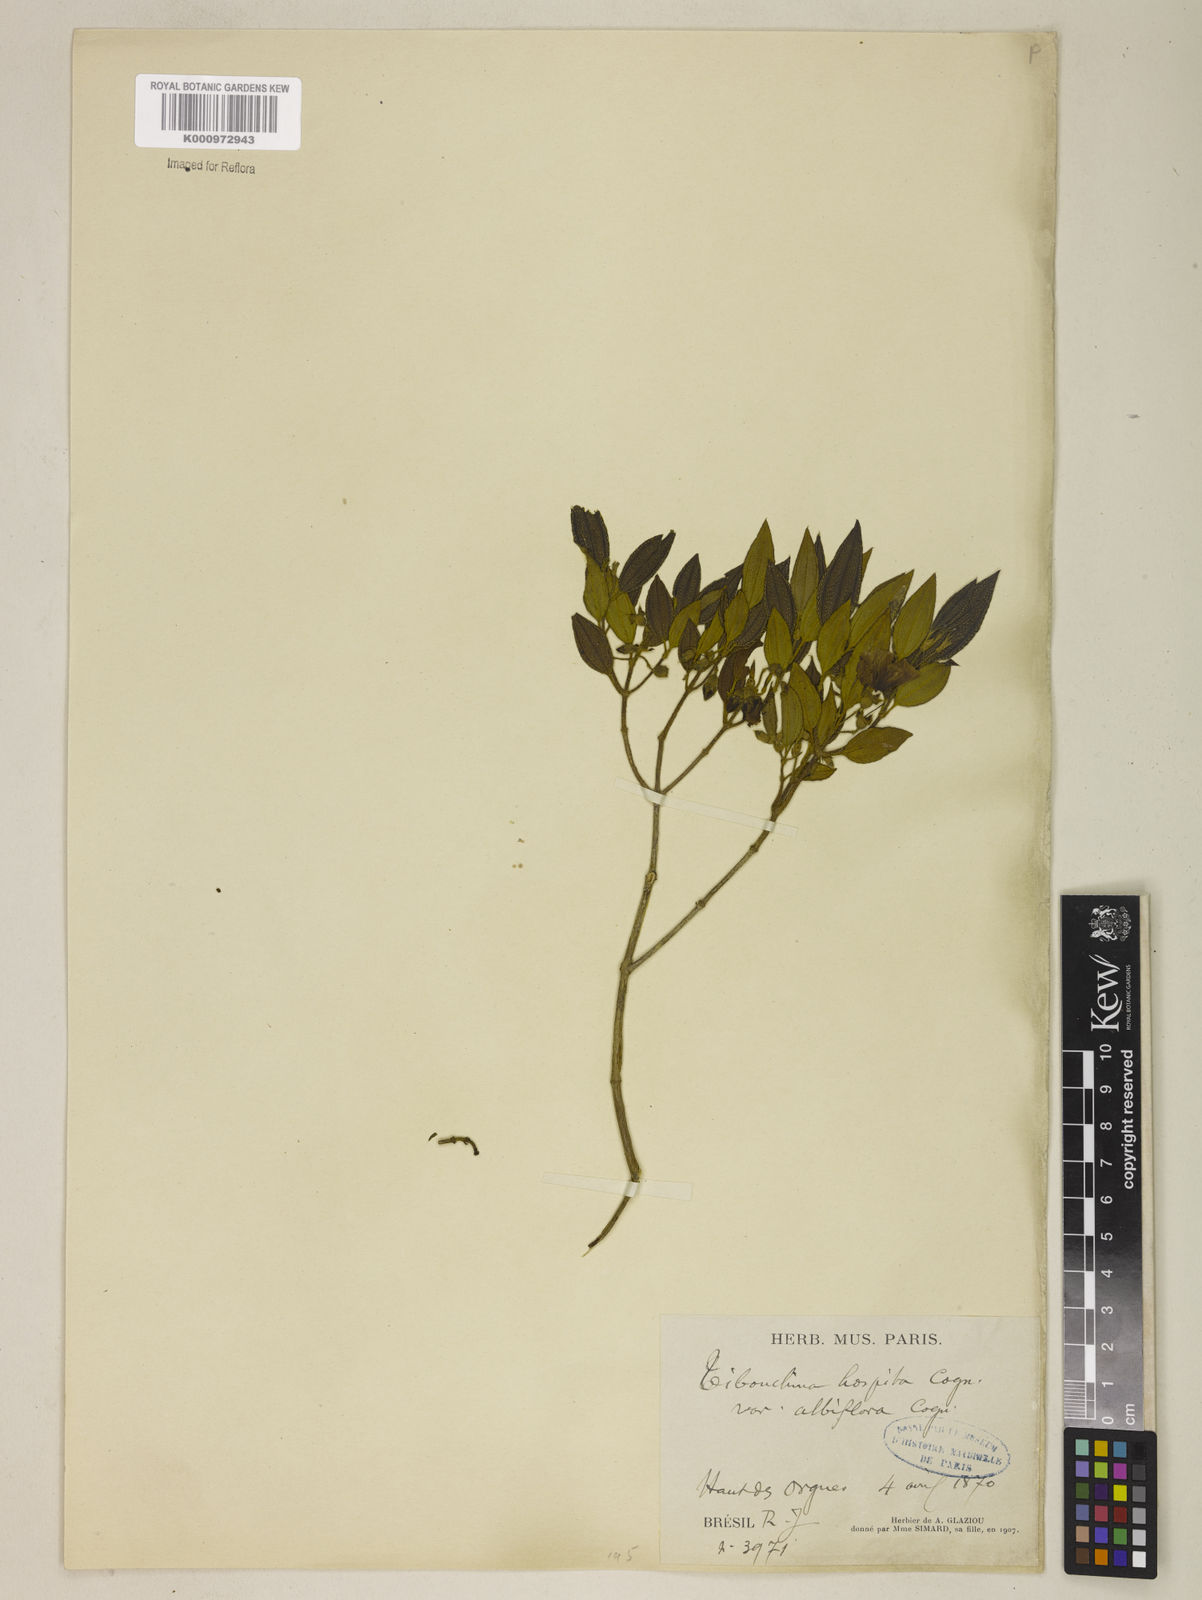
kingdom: Plantae
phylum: Tracheophyta
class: Magnoliopsida
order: Myrtales
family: Melastomataceae
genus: Pleroma
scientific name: Pleroma hospitum
